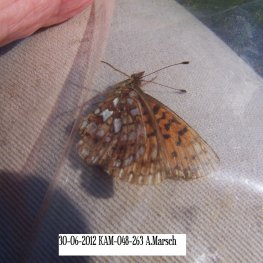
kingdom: Animalia
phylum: Arthropoda
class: Insecta
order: Lepidoptera
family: Nymphalidae
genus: Boloria
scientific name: Boloria selene
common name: Silver-bordered Fritillary
